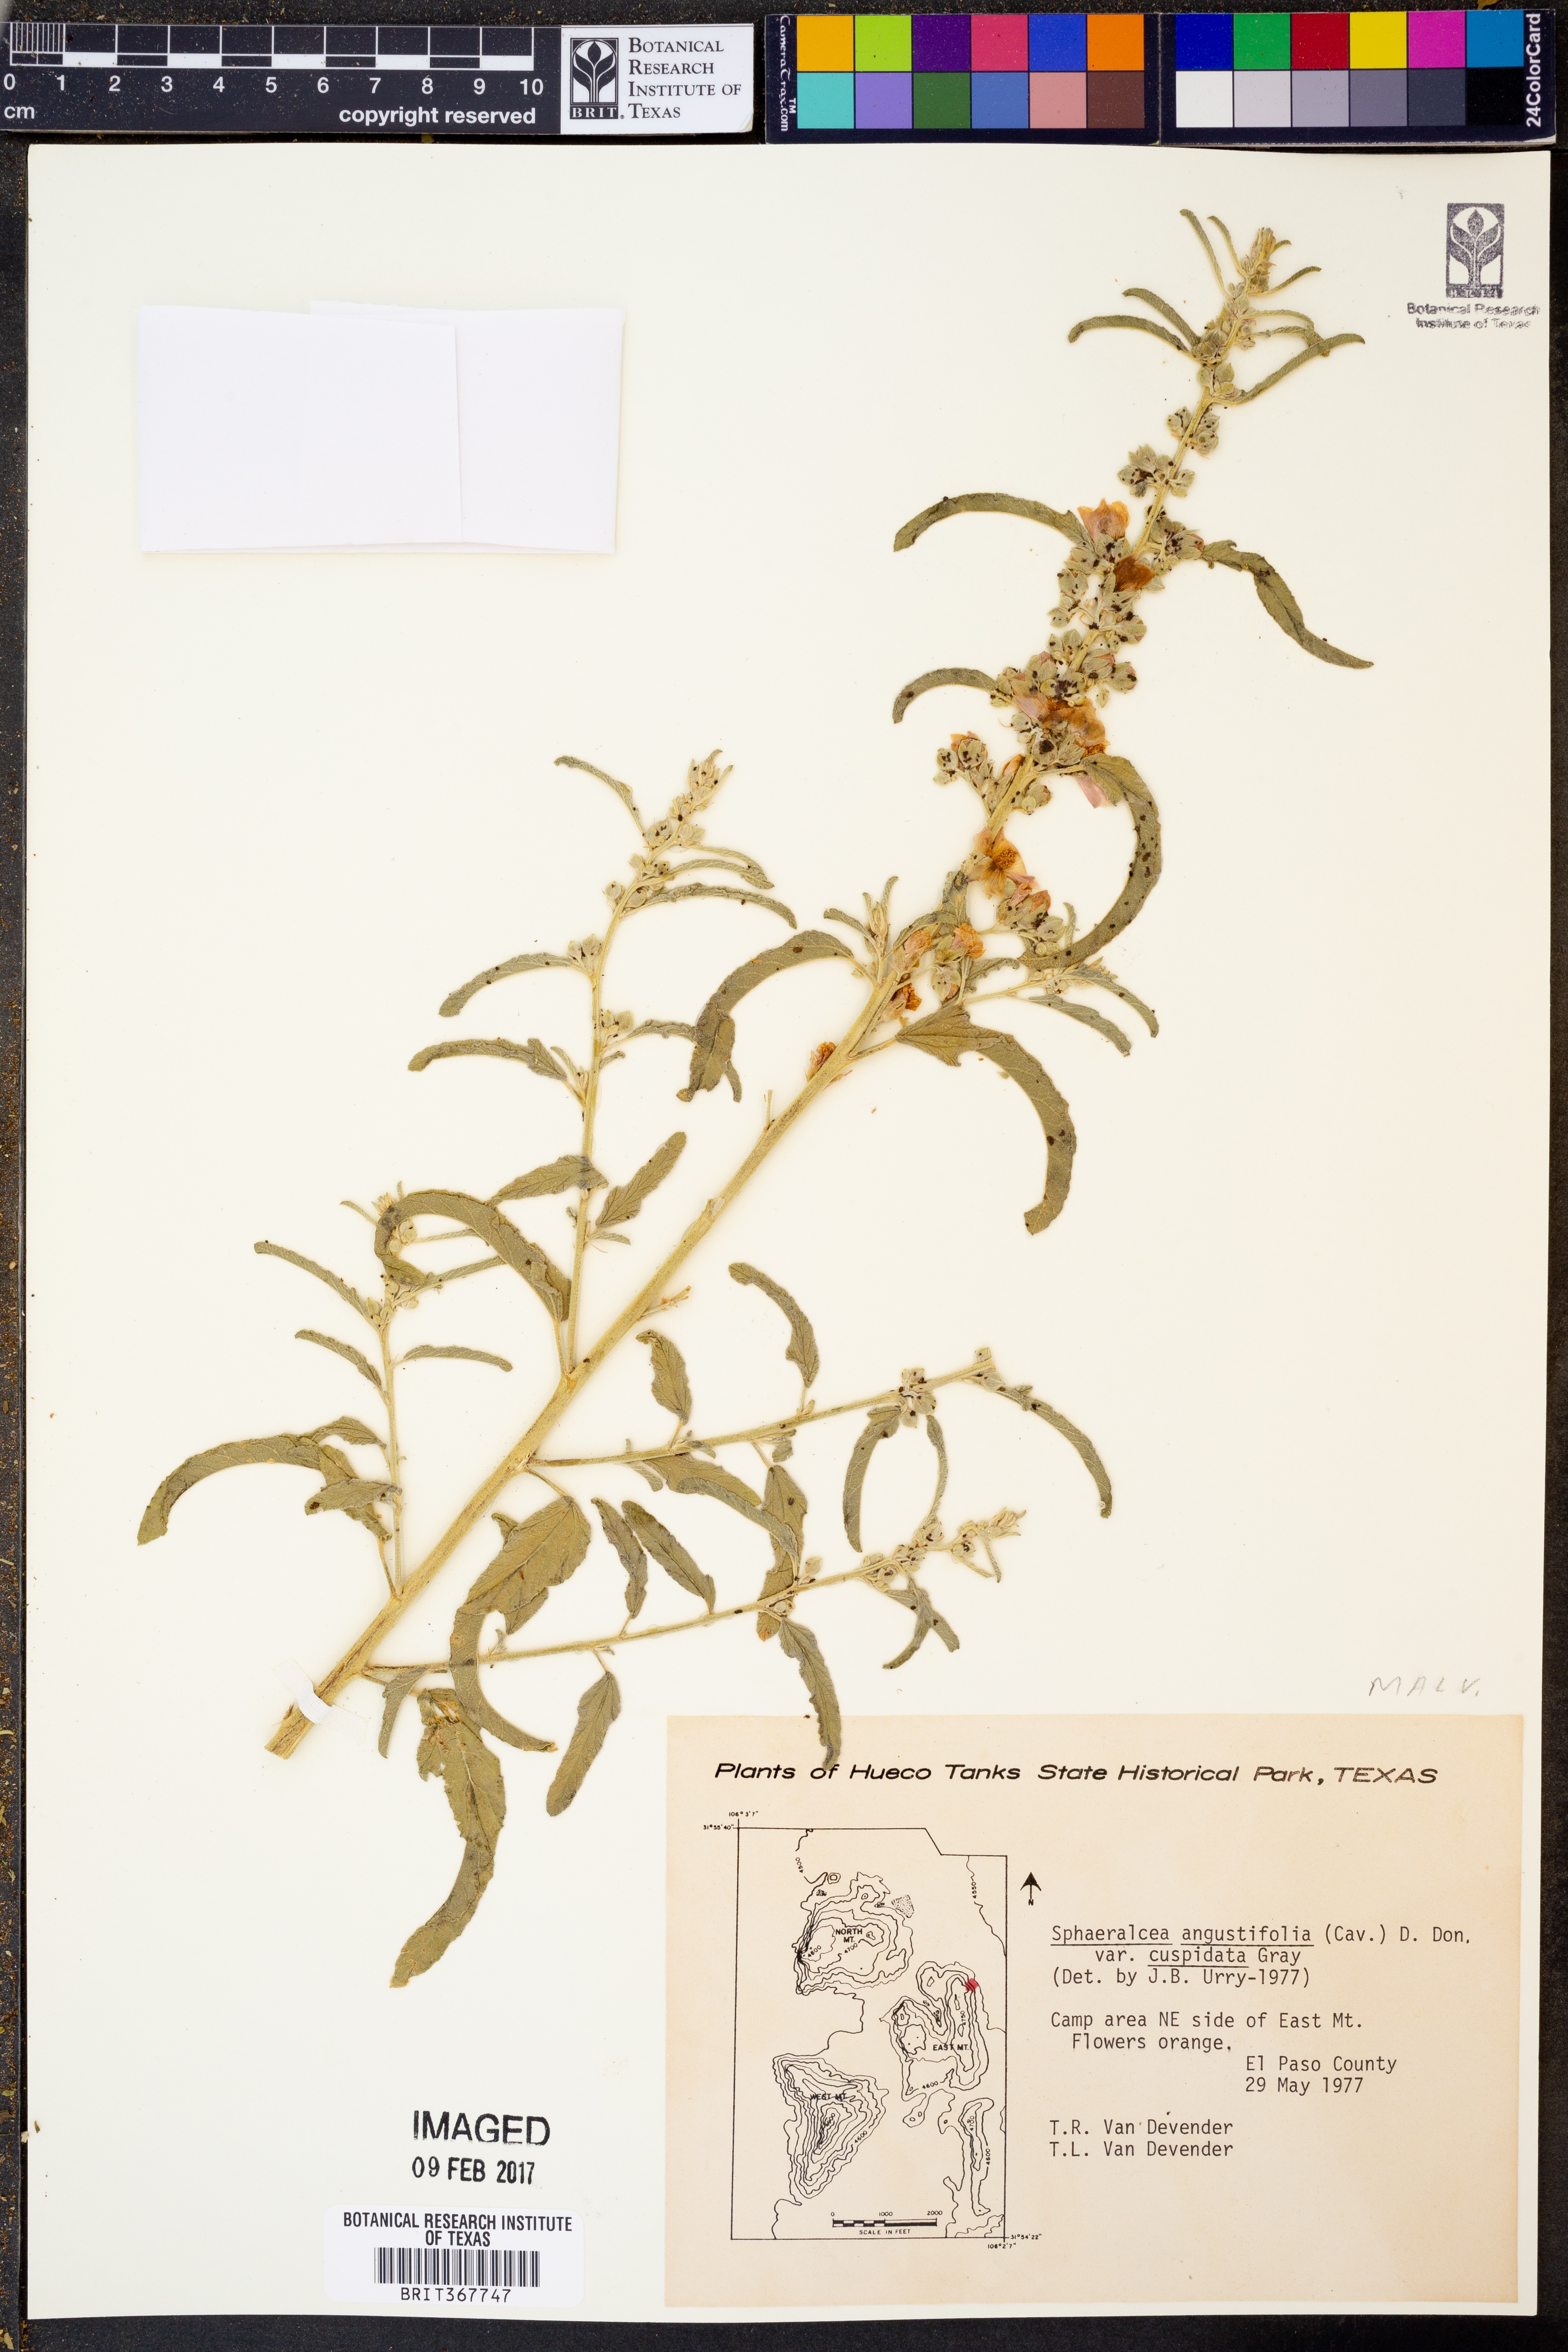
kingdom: Plantae
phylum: Tracheophyta
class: Magnoliopsida
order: Malvales
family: Malvaceae
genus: Sphaeralcea
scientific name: Sphaeralcea angustifolia
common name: Copper globe-mallow
